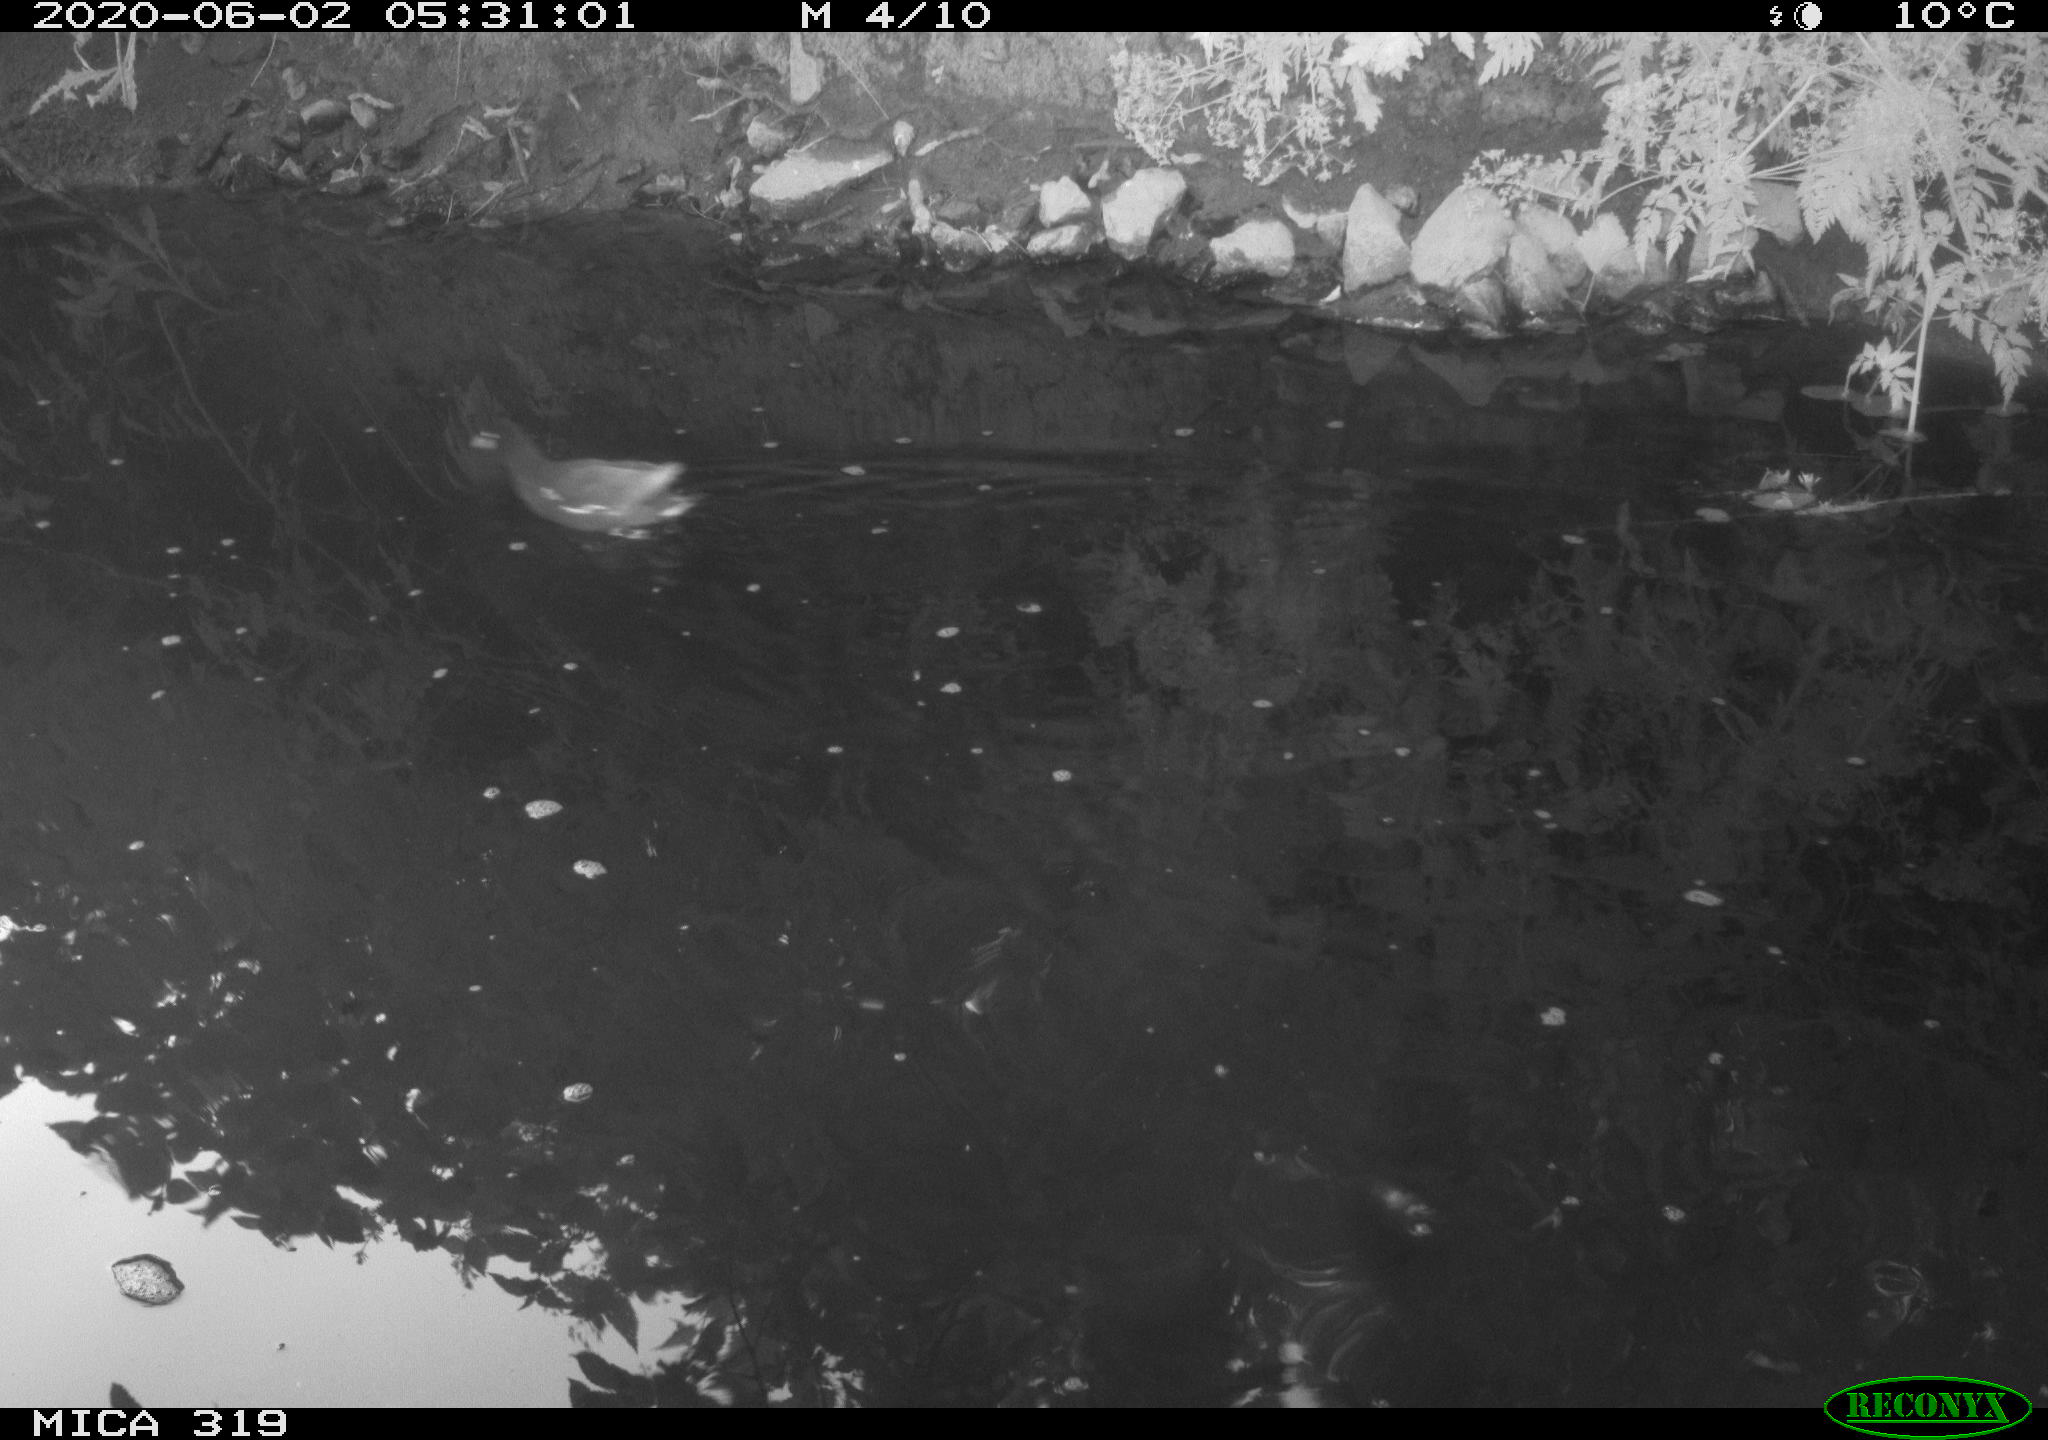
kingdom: Animalia
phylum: Chordata
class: Aves
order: Gruiformes
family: Rallidae
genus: Gallinula
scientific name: Gallinula chloropus
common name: Common moorhen
